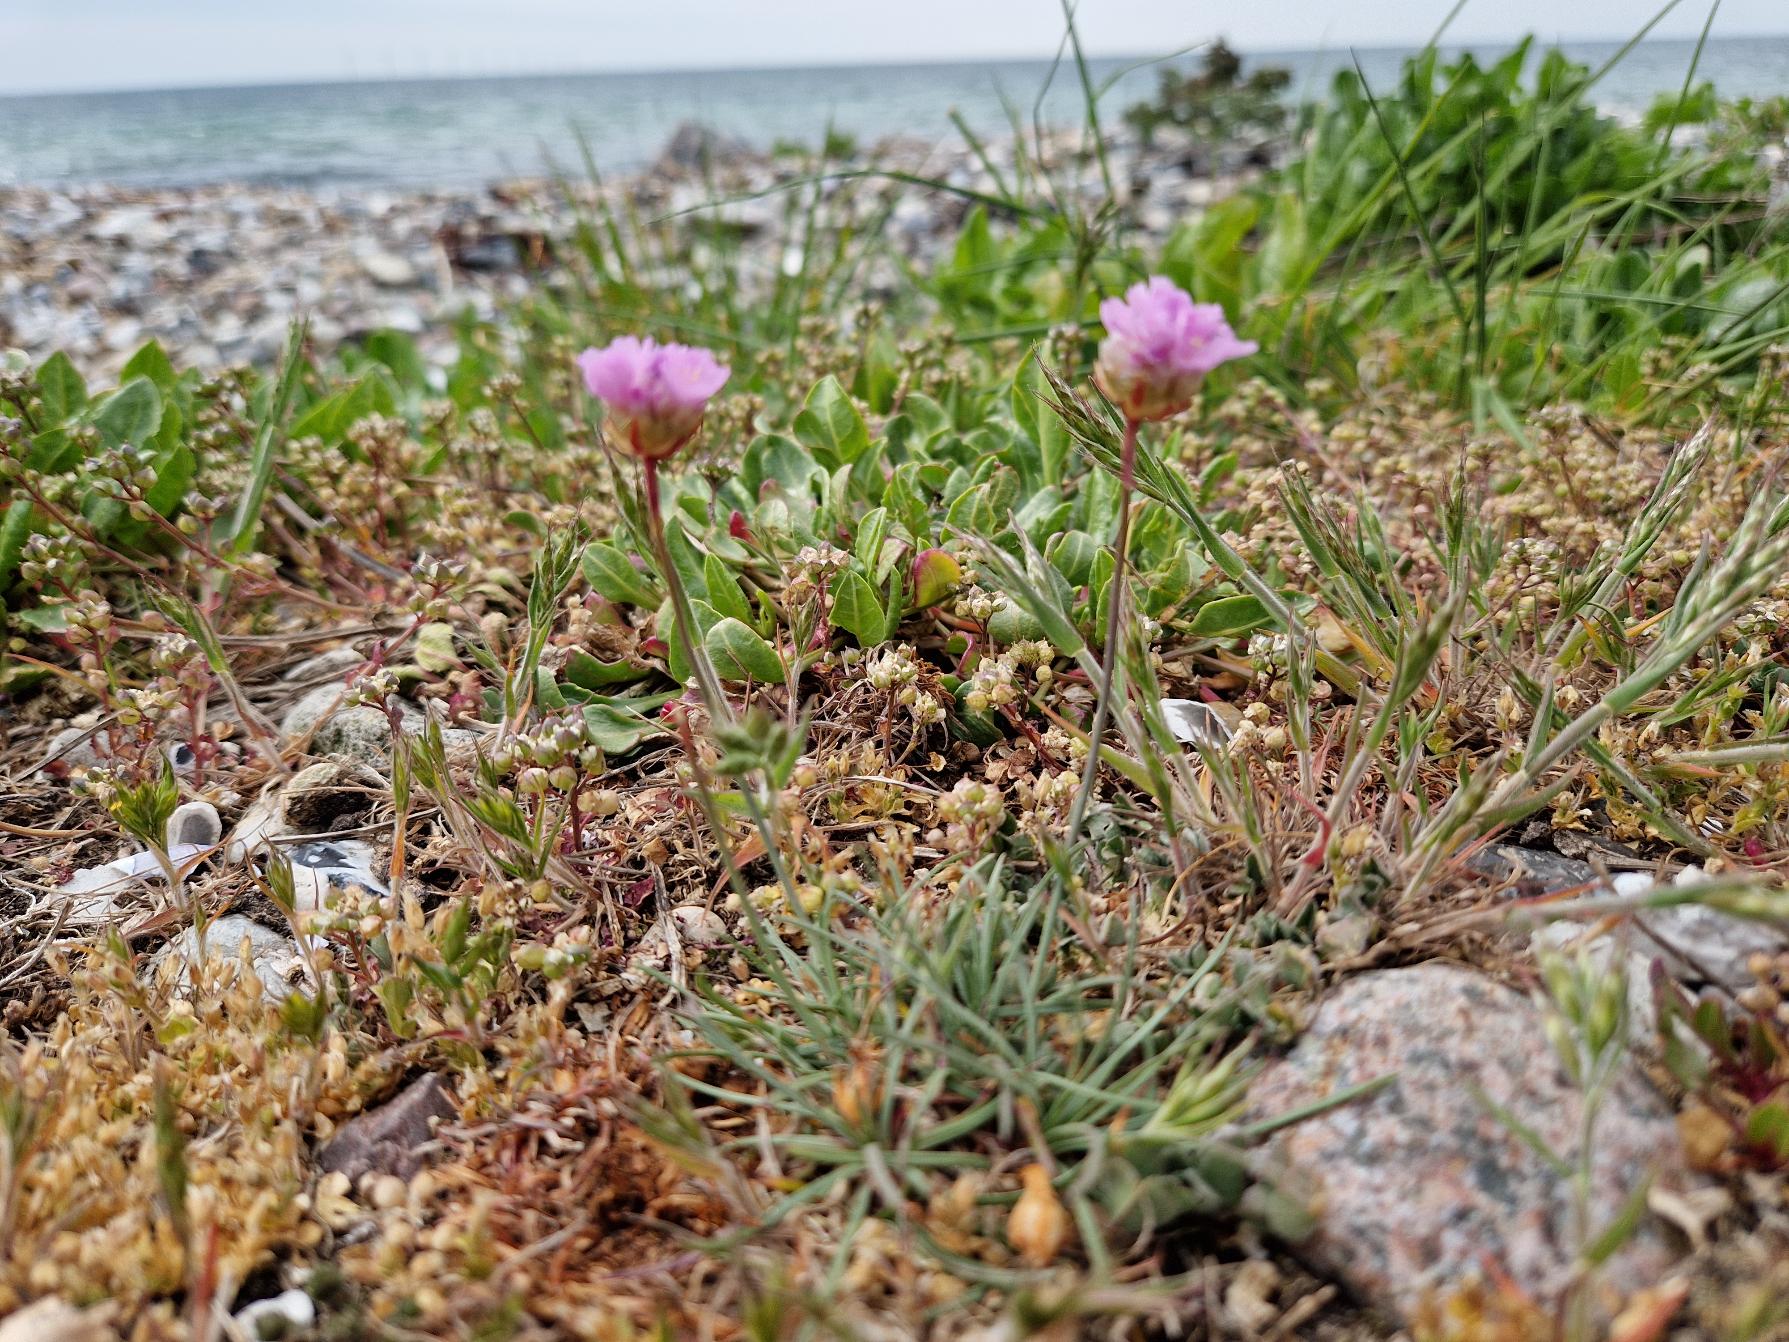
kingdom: Plantae
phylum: Tracheophyta
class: Magnoliopsida
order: Caryophyllales
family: Plumbaginaceae
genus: Armeria
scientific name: Armeria maritima
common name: Engelskgræs
